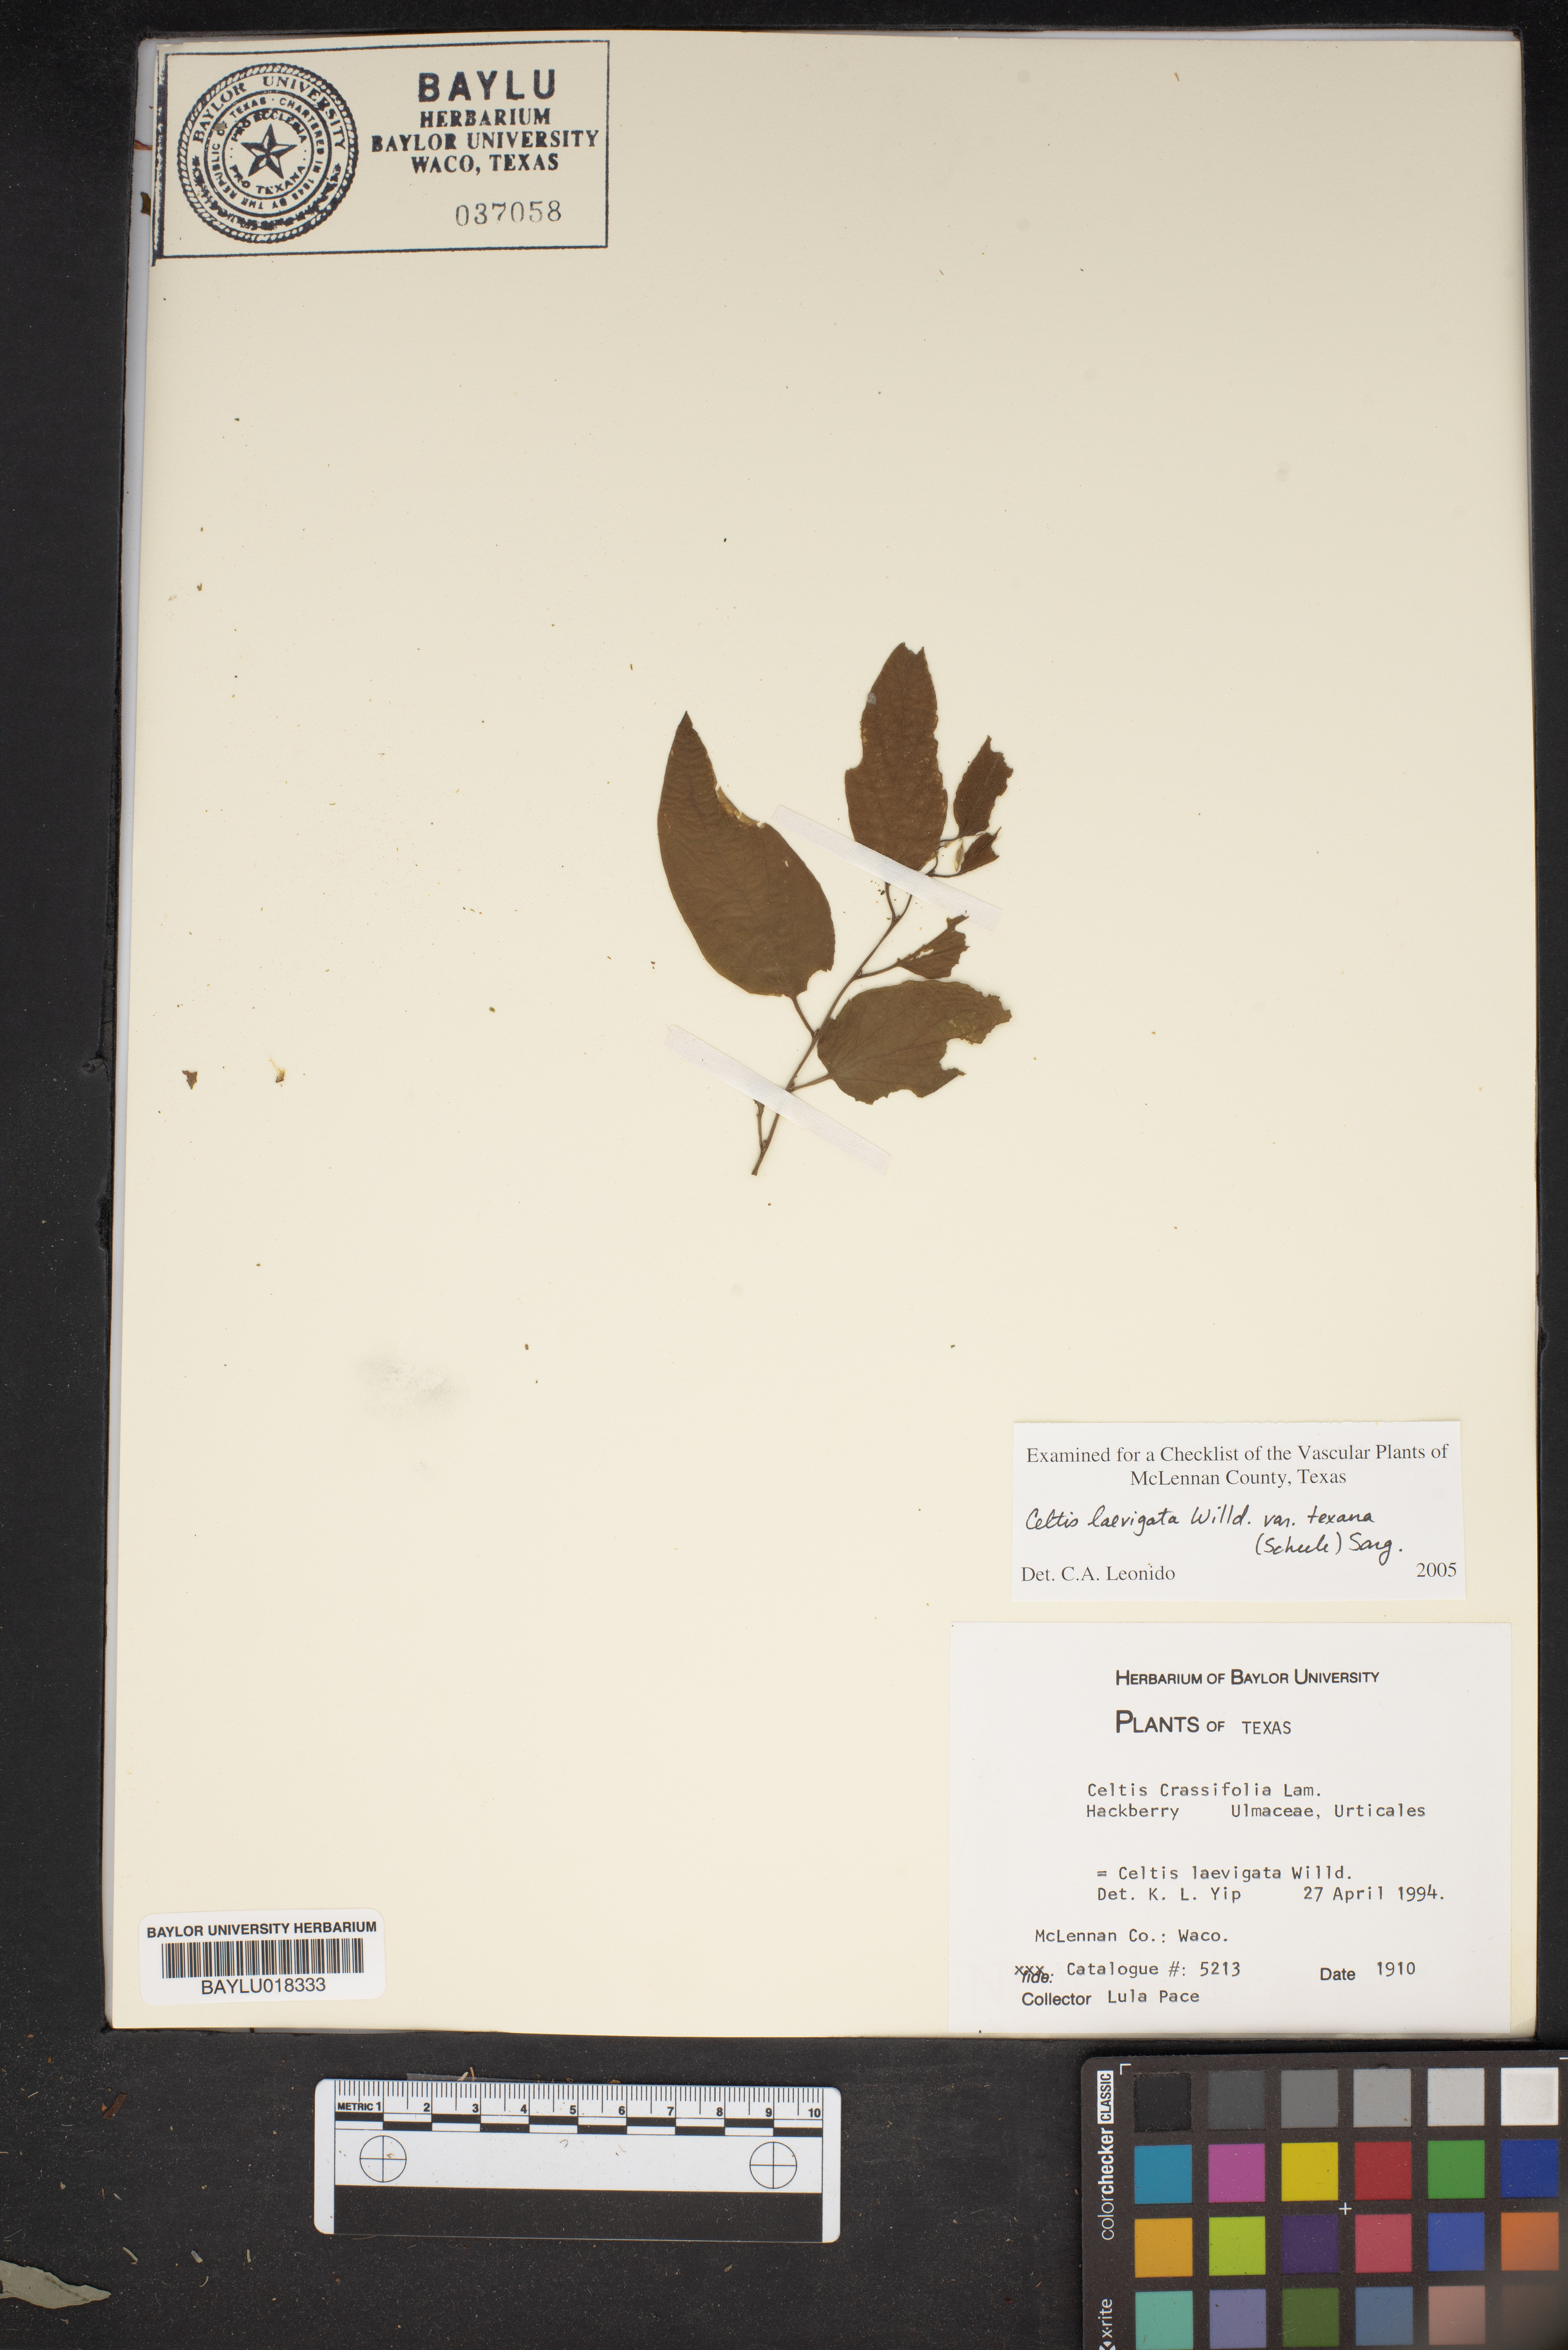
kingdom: Plantae
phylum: Tracheophyta
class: Magnoliopsida
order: Rosales
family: Cannabaceae
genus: Celtis
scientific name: Celtis laevigata
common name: Sugarberry
